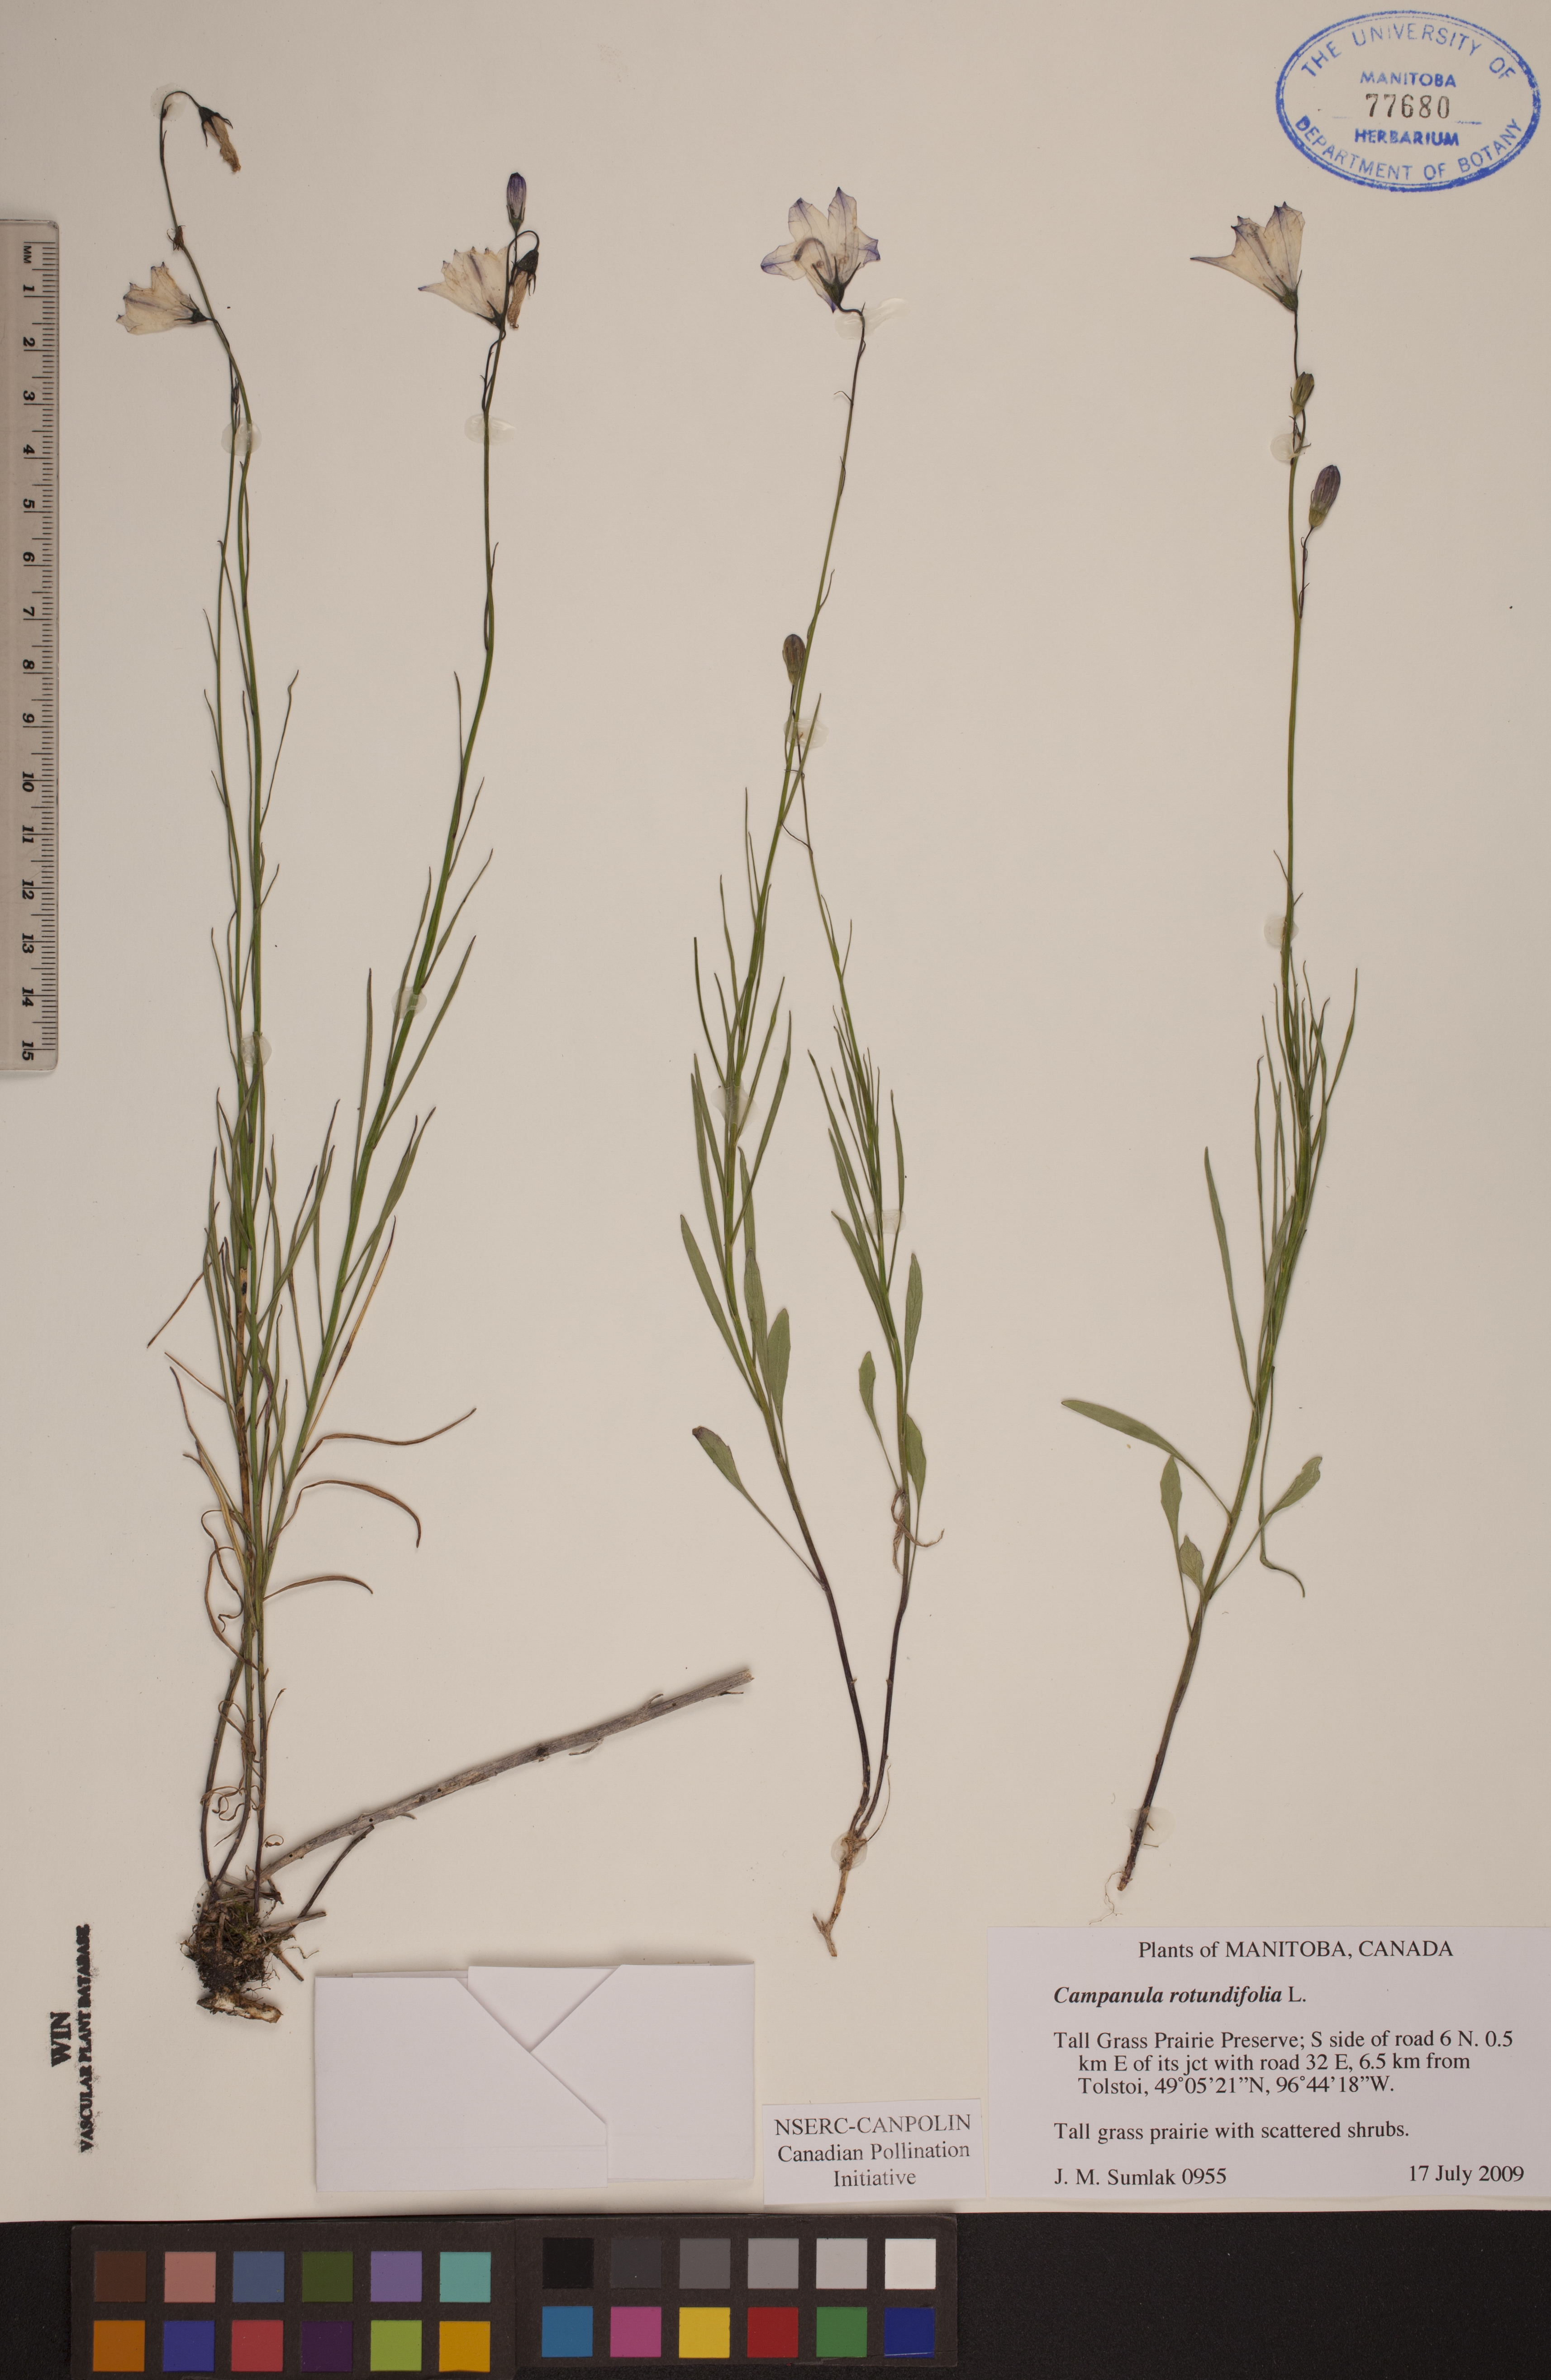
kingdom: Plantae
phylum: Tracheophyta
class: Magnoliopsida
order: Asterales
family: Campanulaceae
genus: Campanula
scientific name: Campanula rotundifolia
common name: Harebell
